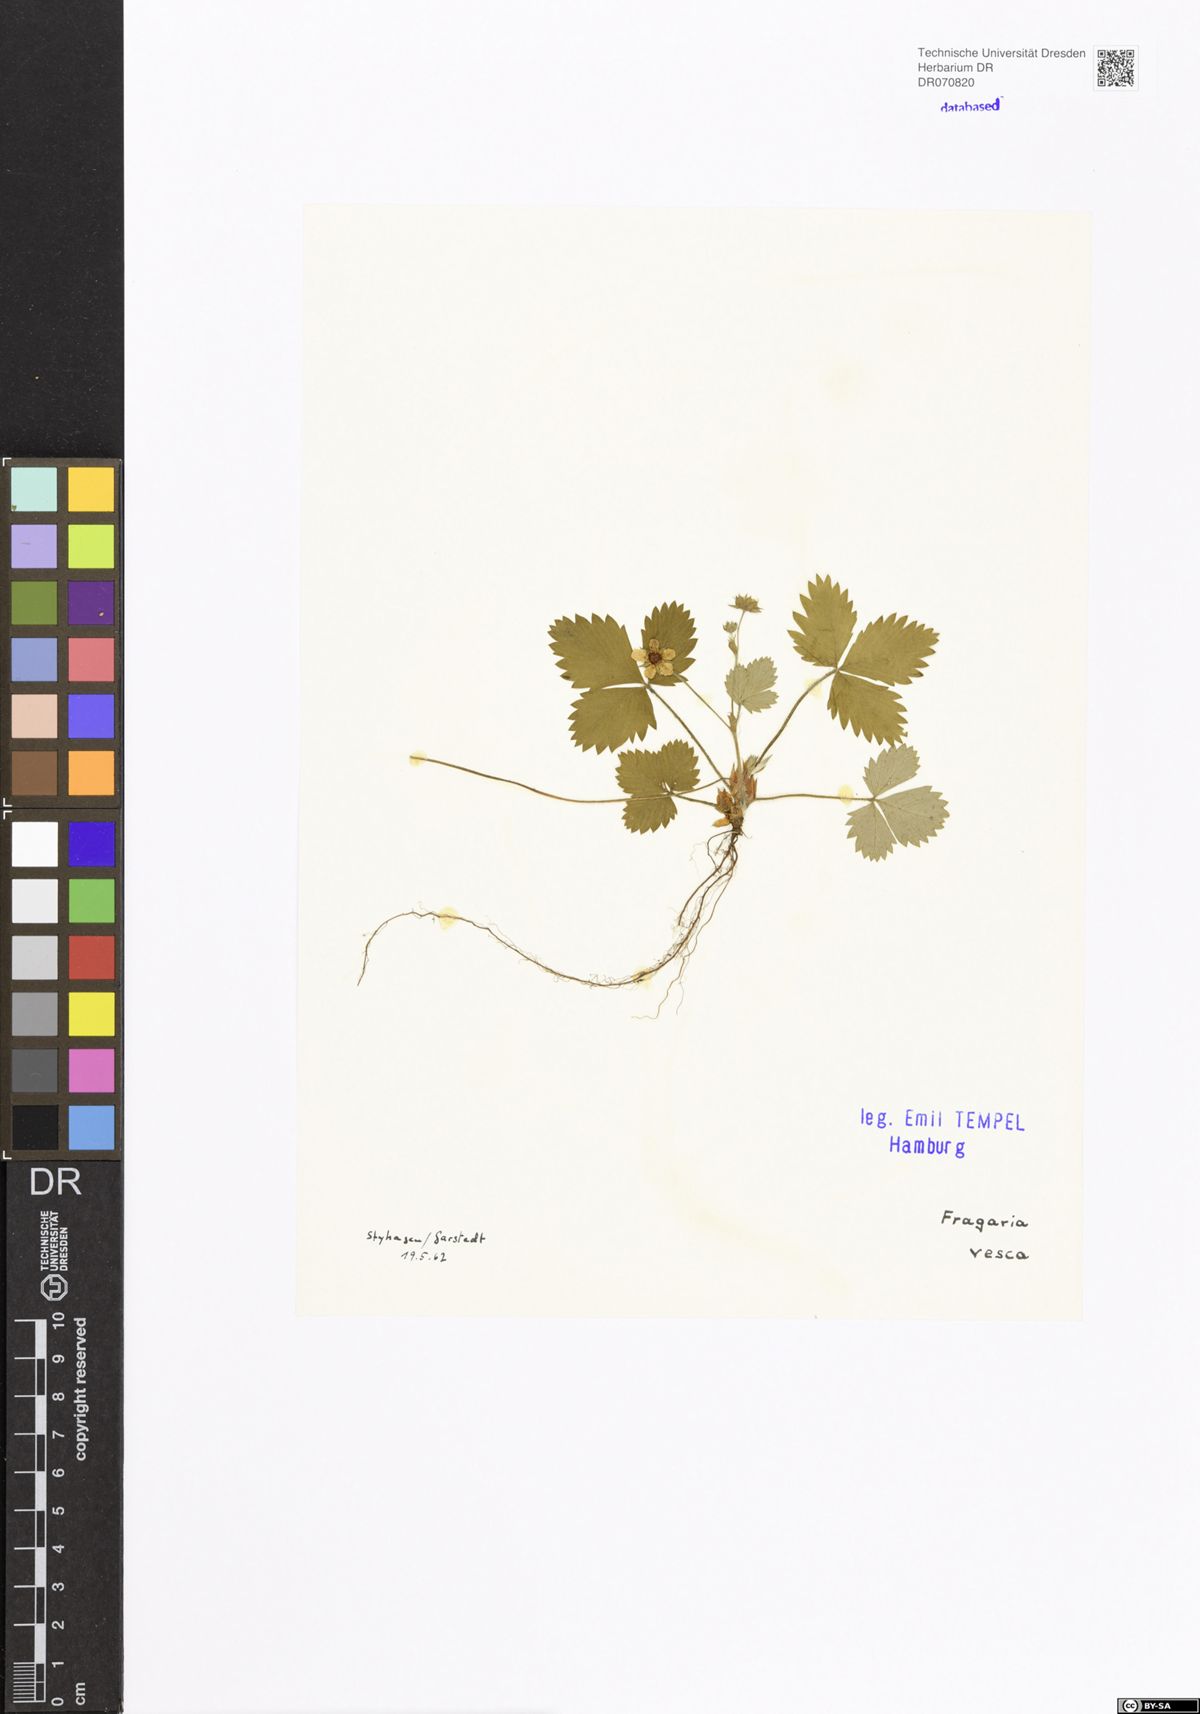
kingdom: Plantae
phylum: Tracheophyta
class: Magnoliopsida
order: Rosales
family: Rosaceae
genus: Fragaria
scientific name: Fragaria vesca
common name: Wild strawberry
